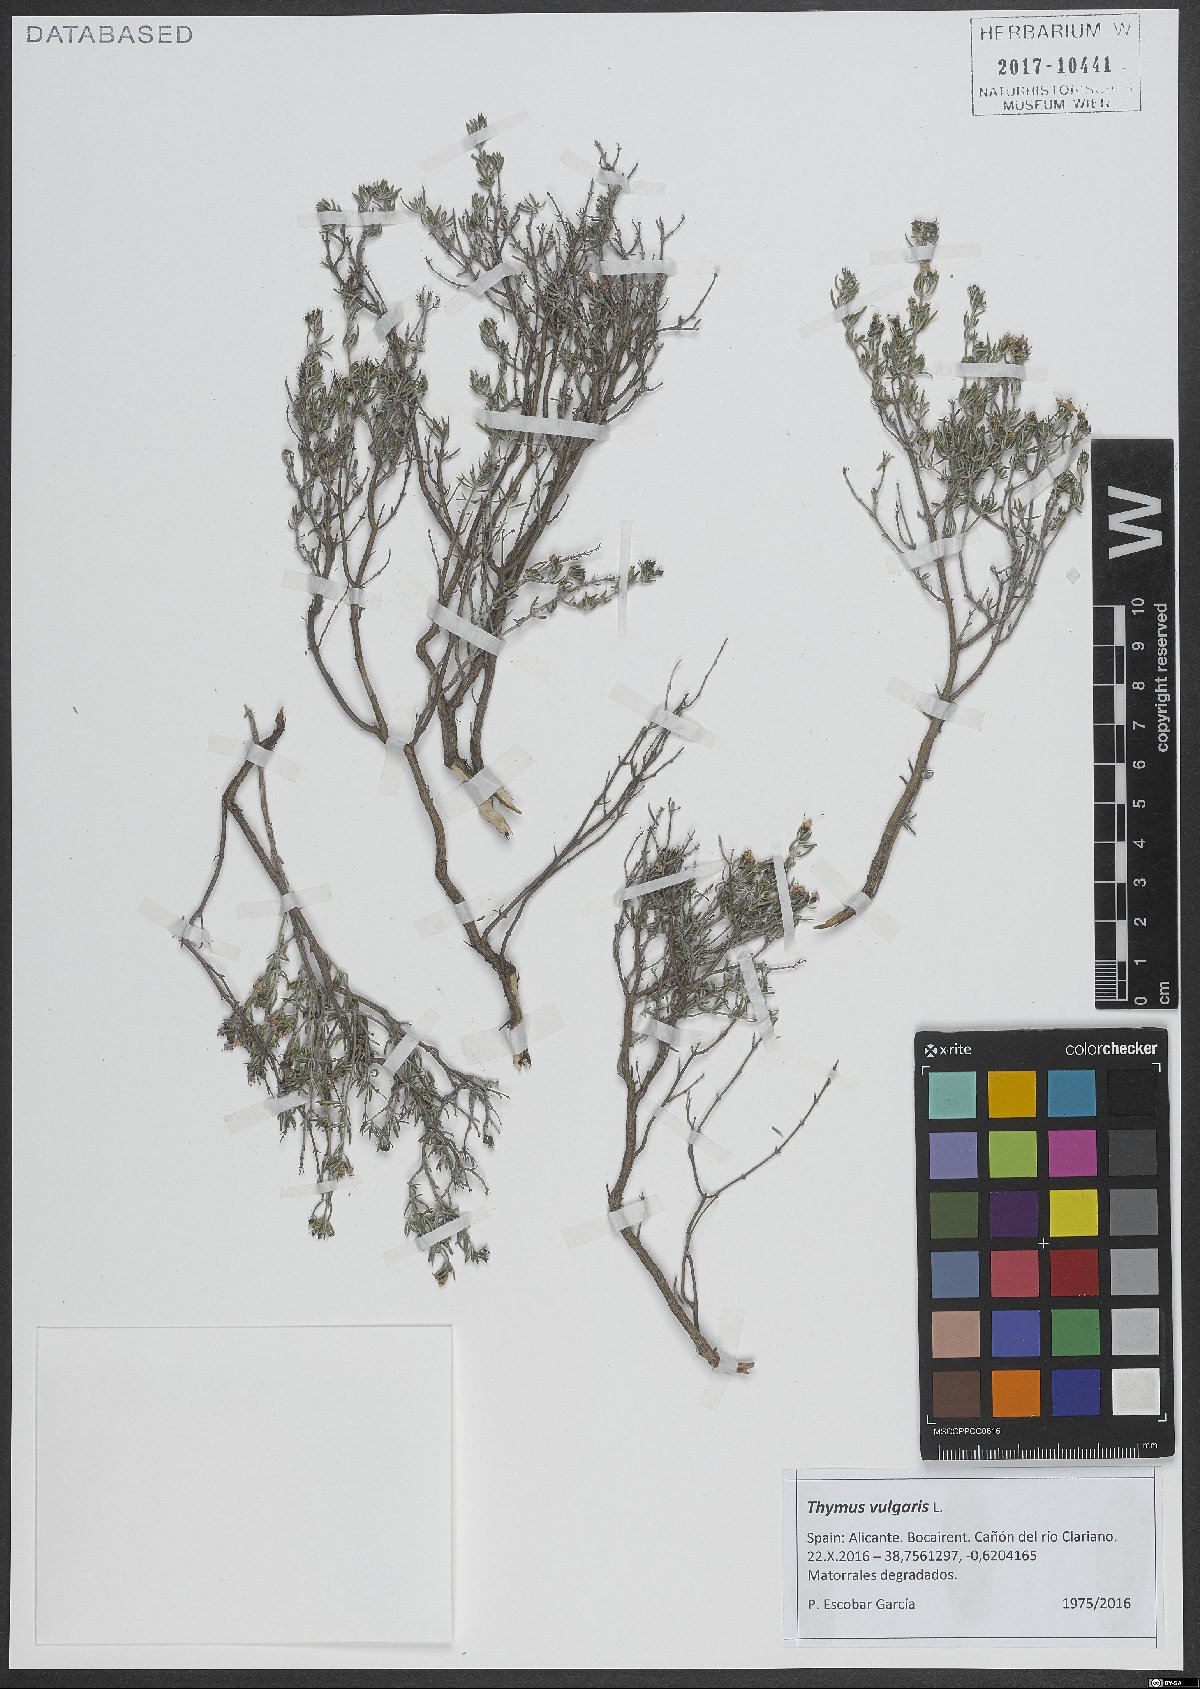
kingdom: Plantae
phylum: Tracheophyta
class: Magnoliopsida
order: Lamiales
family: Lamiaceae
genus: Thymus
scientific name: Thymus vulgaris
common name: Garden thyme
